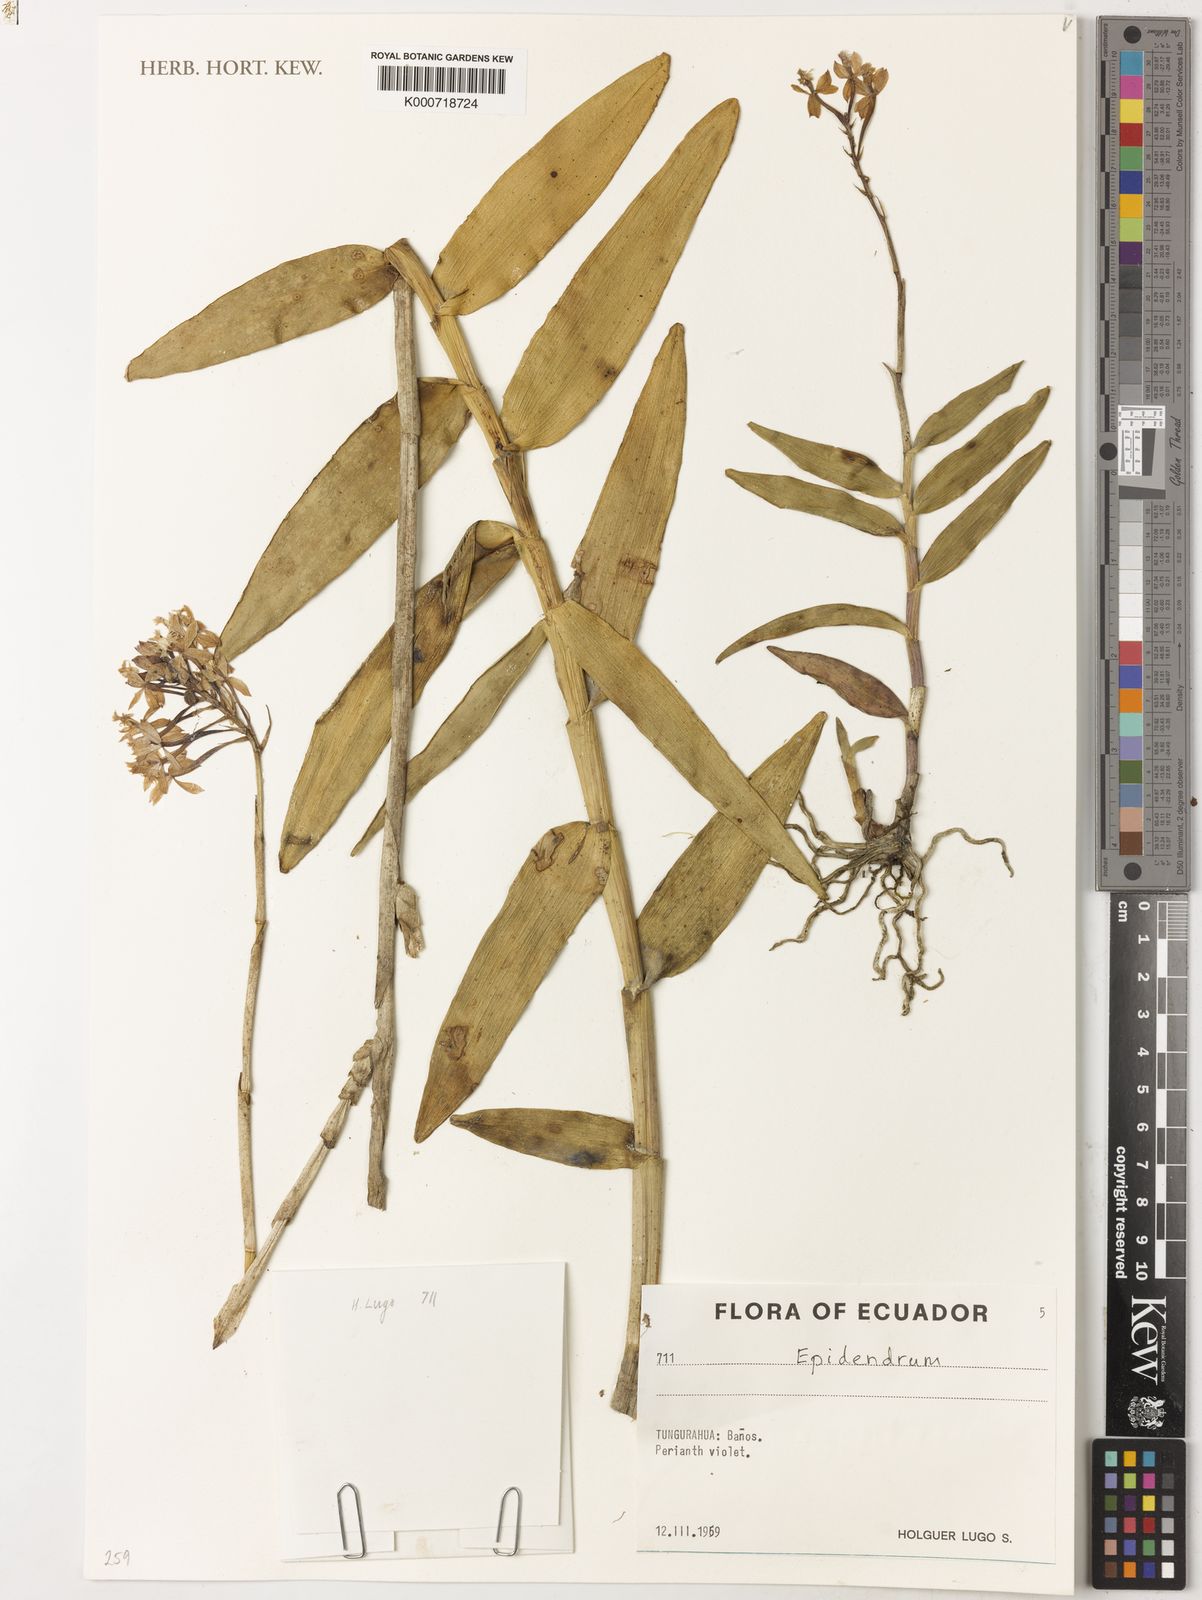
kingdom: Plantae
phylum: Tracheophyta
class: Liliopsida
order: Asparagales
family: Orchidaceae
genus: Epidendrum
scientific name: Epidendrum
